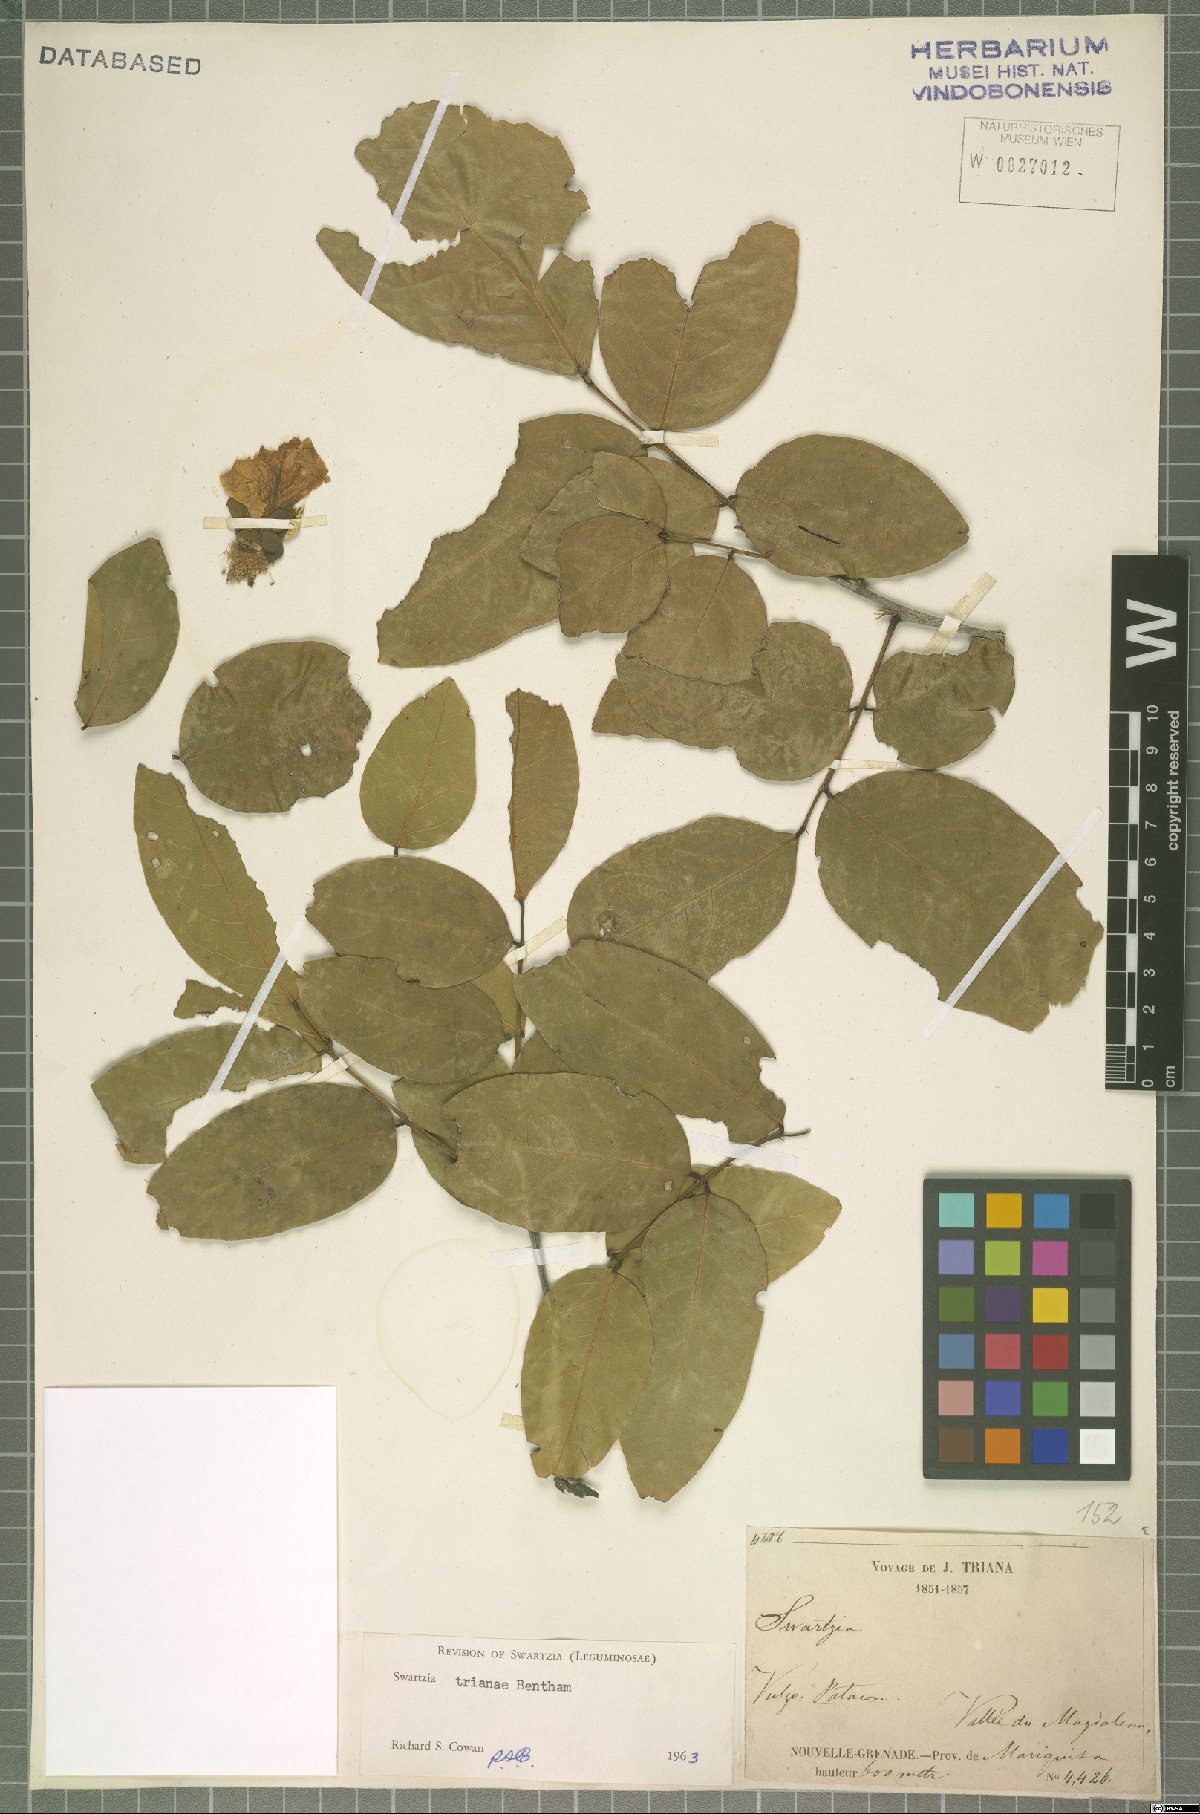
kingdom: Plantae
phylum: Tracheophyta
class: Magnoliopsida
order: Fabales
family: Fabaceae
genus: Swartzia
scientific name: Swartzia trianae
